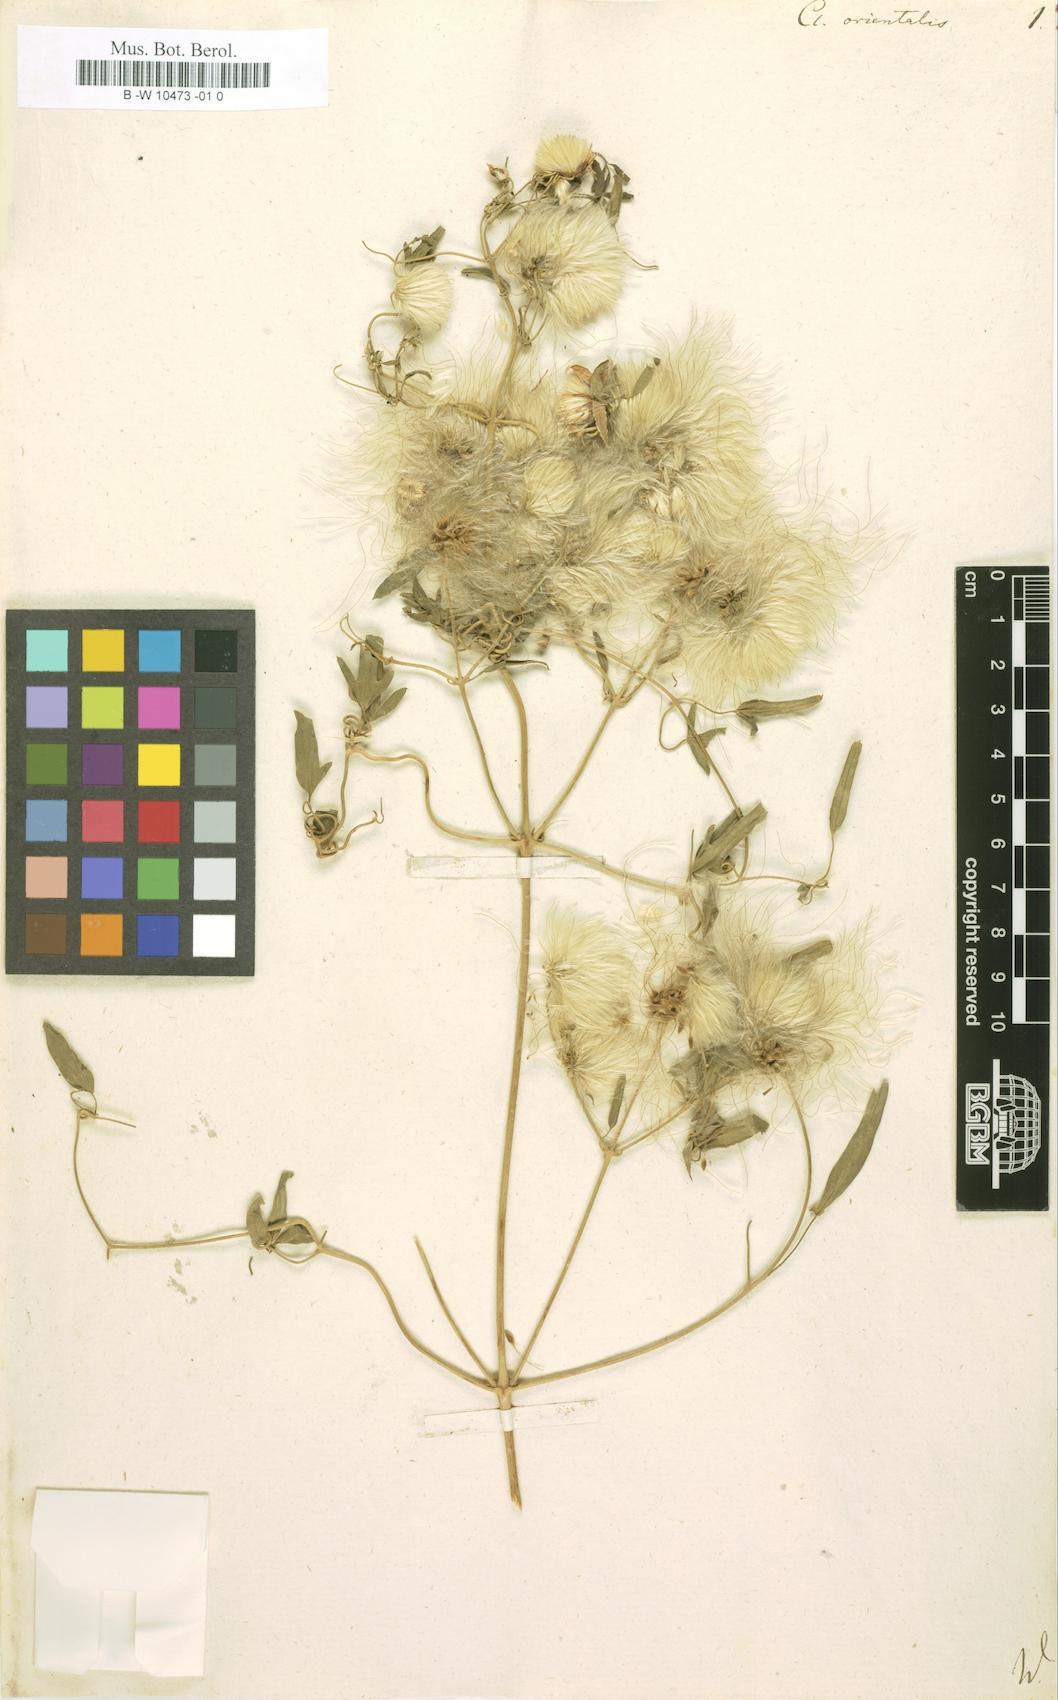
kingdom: Plantae
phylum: Tracheophyta
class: Magnoliopsida
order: Ranunculales
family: Ranunculaceae
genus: Clematis
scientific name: Clematis orientalis
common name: Oriental virgin's-bower
